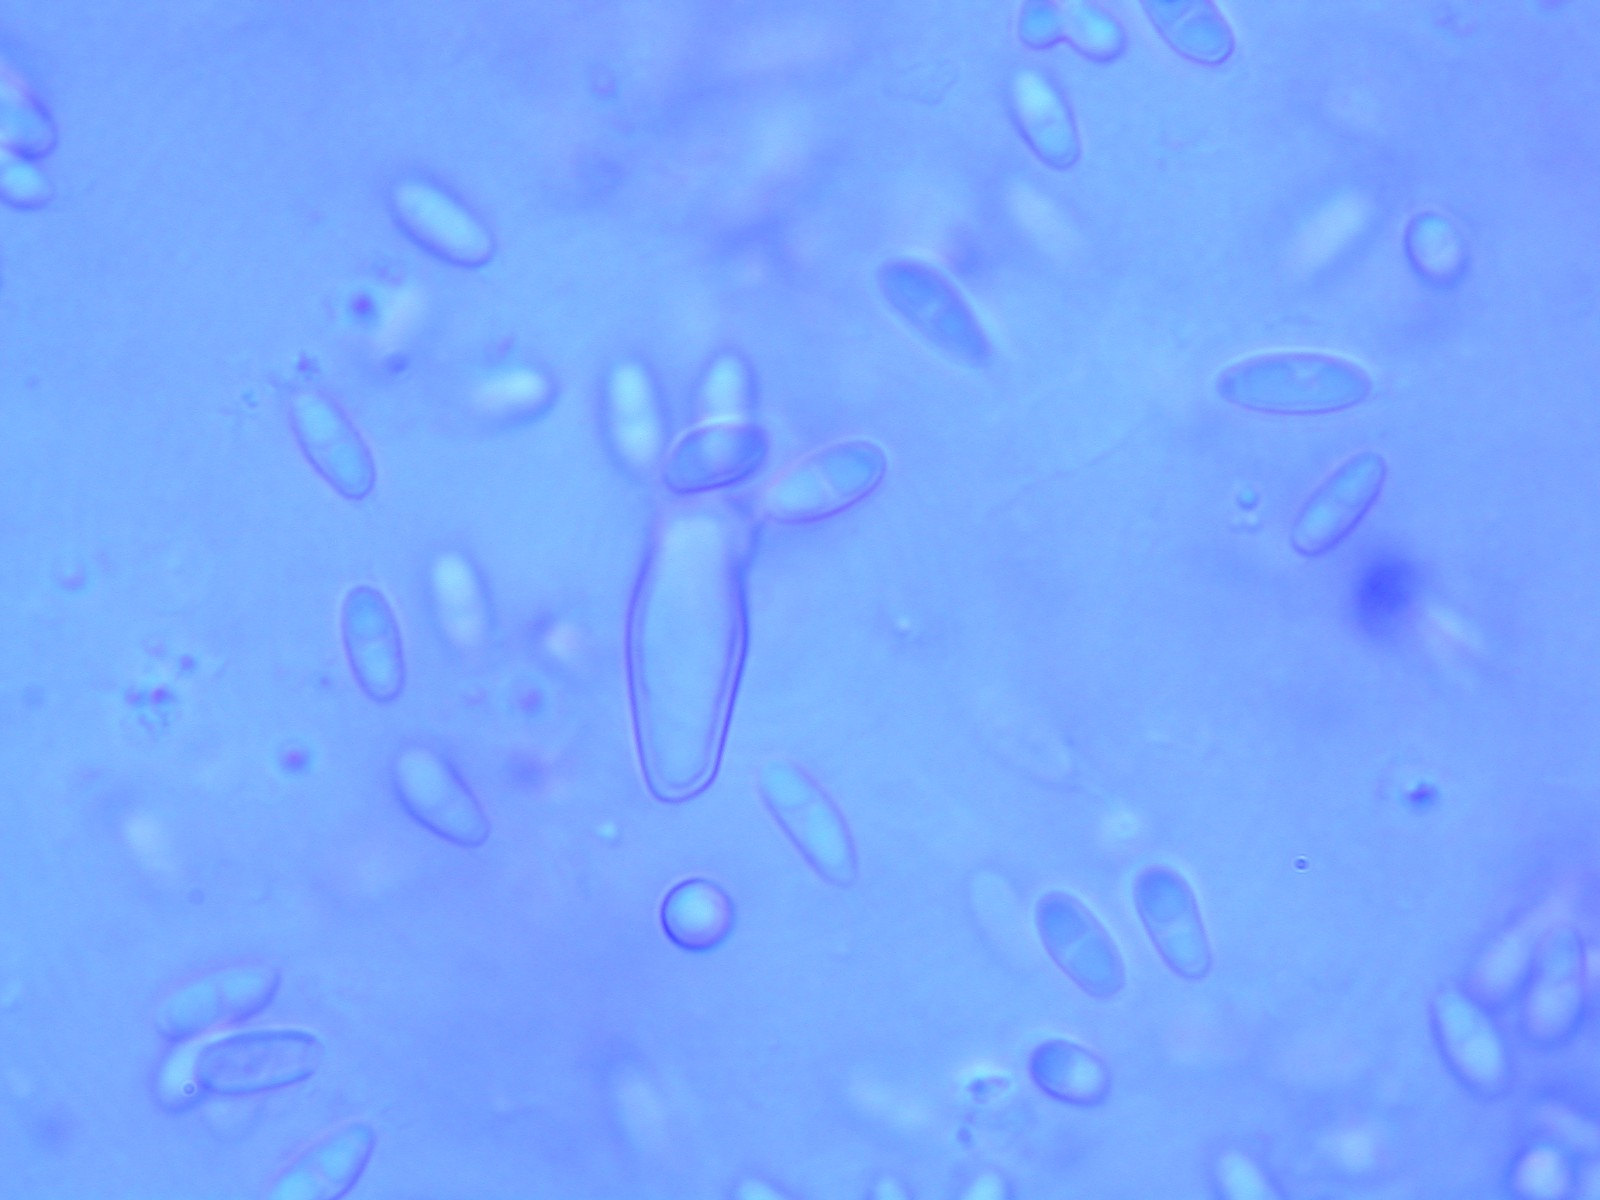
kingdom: Fungi
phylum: Basidiomycota
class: Agaricomycetes
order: Boletales
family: Rhizopogonaceae
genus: Rhizopogon
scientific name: Rhizopogon obtextus
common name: gul skægtrøffel
